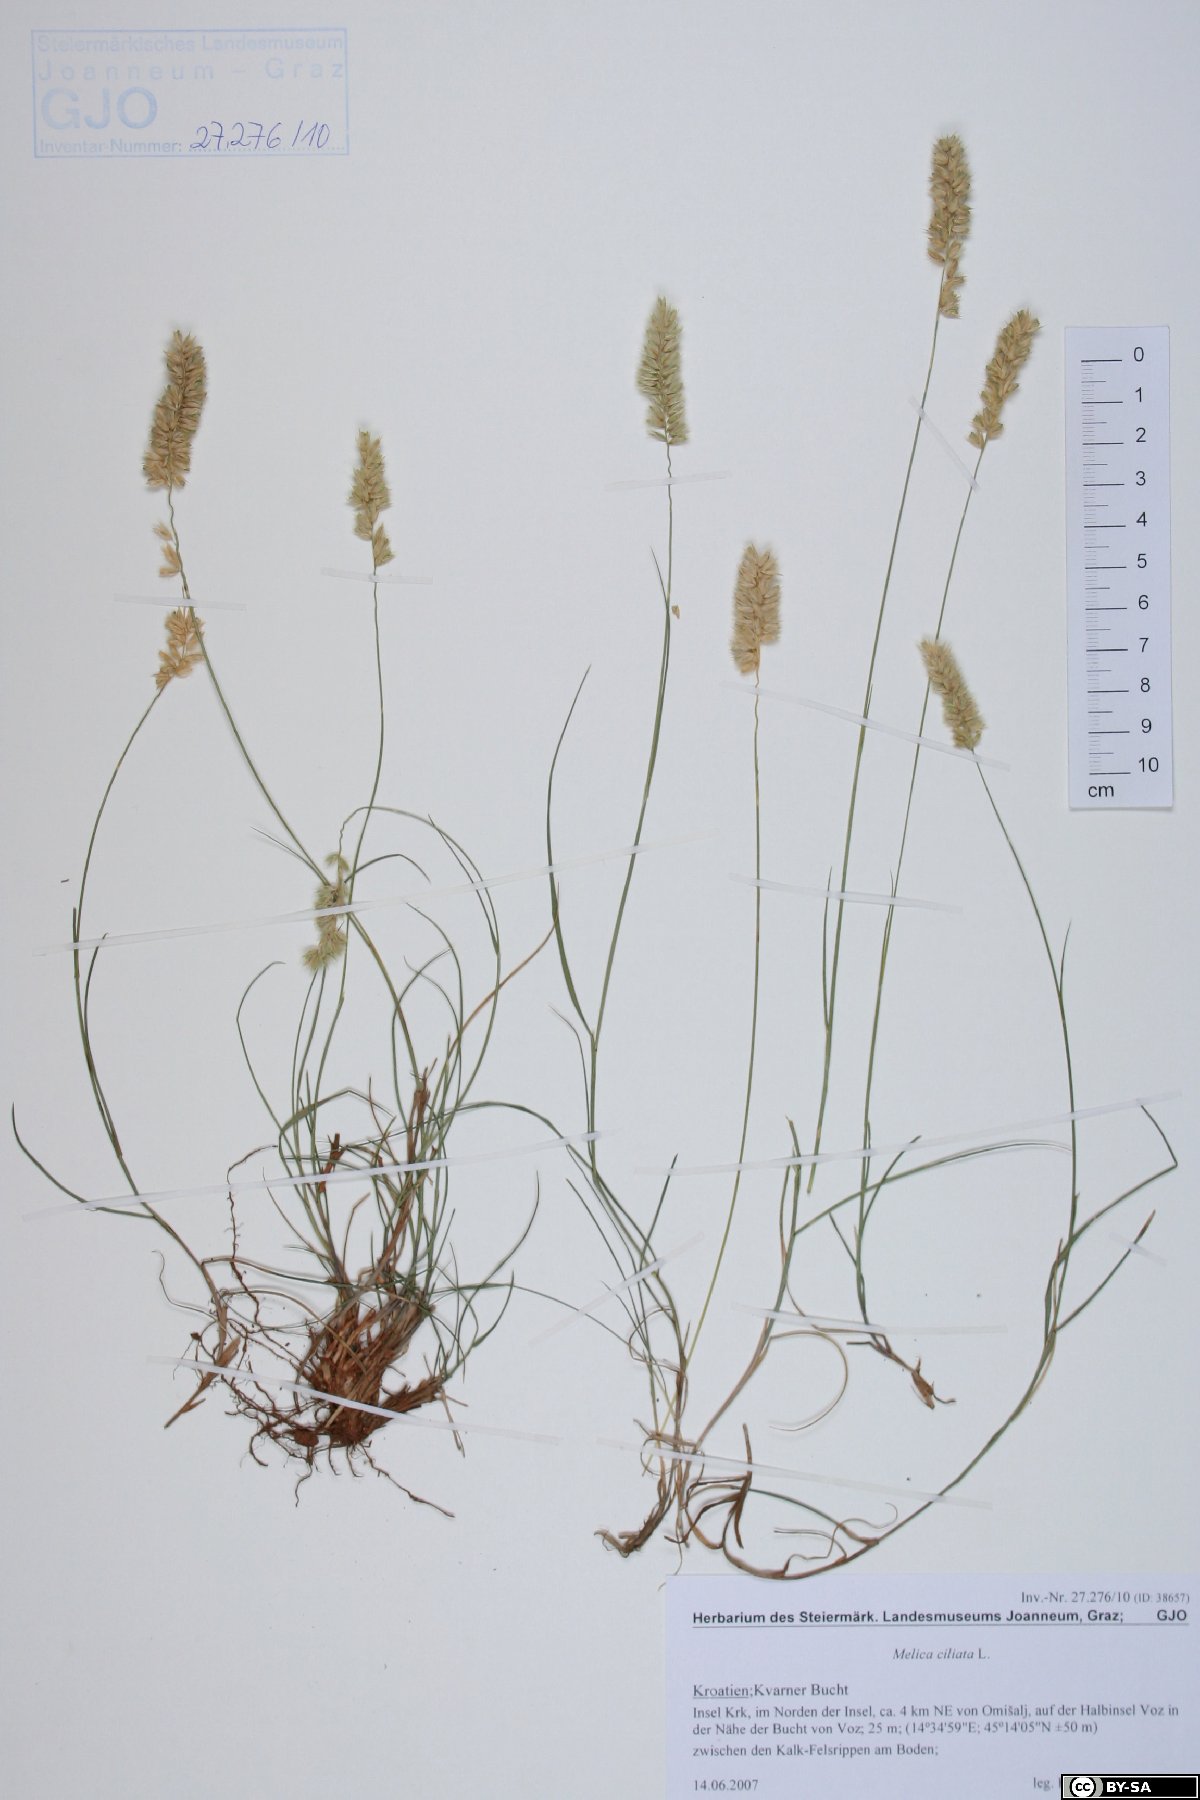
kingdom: Plantae
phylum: Tracheophyta
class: Liliopsida
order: Poales
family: Poaceae
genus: Melica
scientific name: Melica ciliata
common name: Hairy melicgrass
